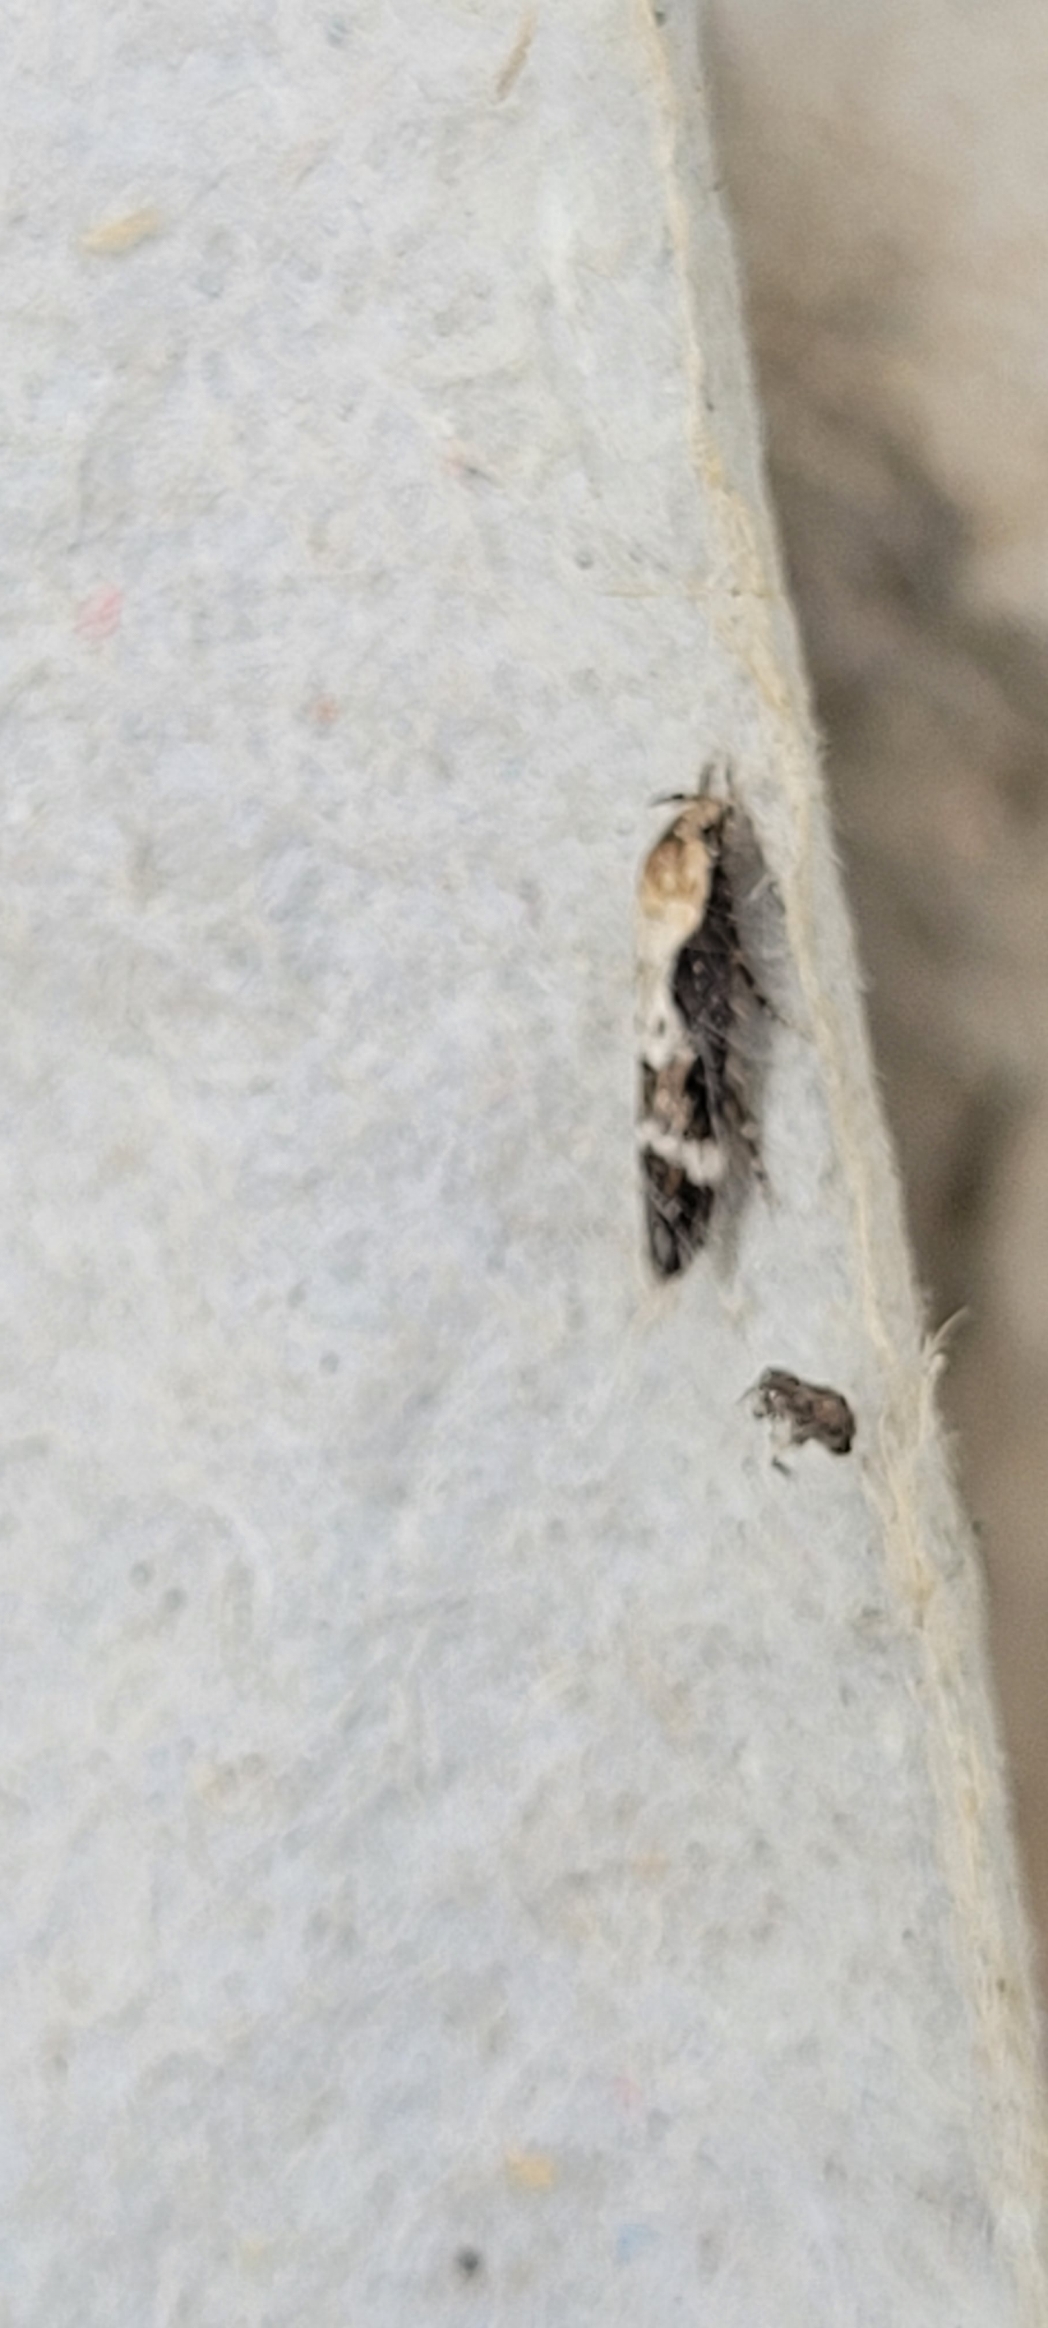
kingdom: Animalia
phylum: Arthropoda
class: Insecta
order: Lepidoptera
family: Momphidae
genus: Mompha
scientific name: Mompha decorella
